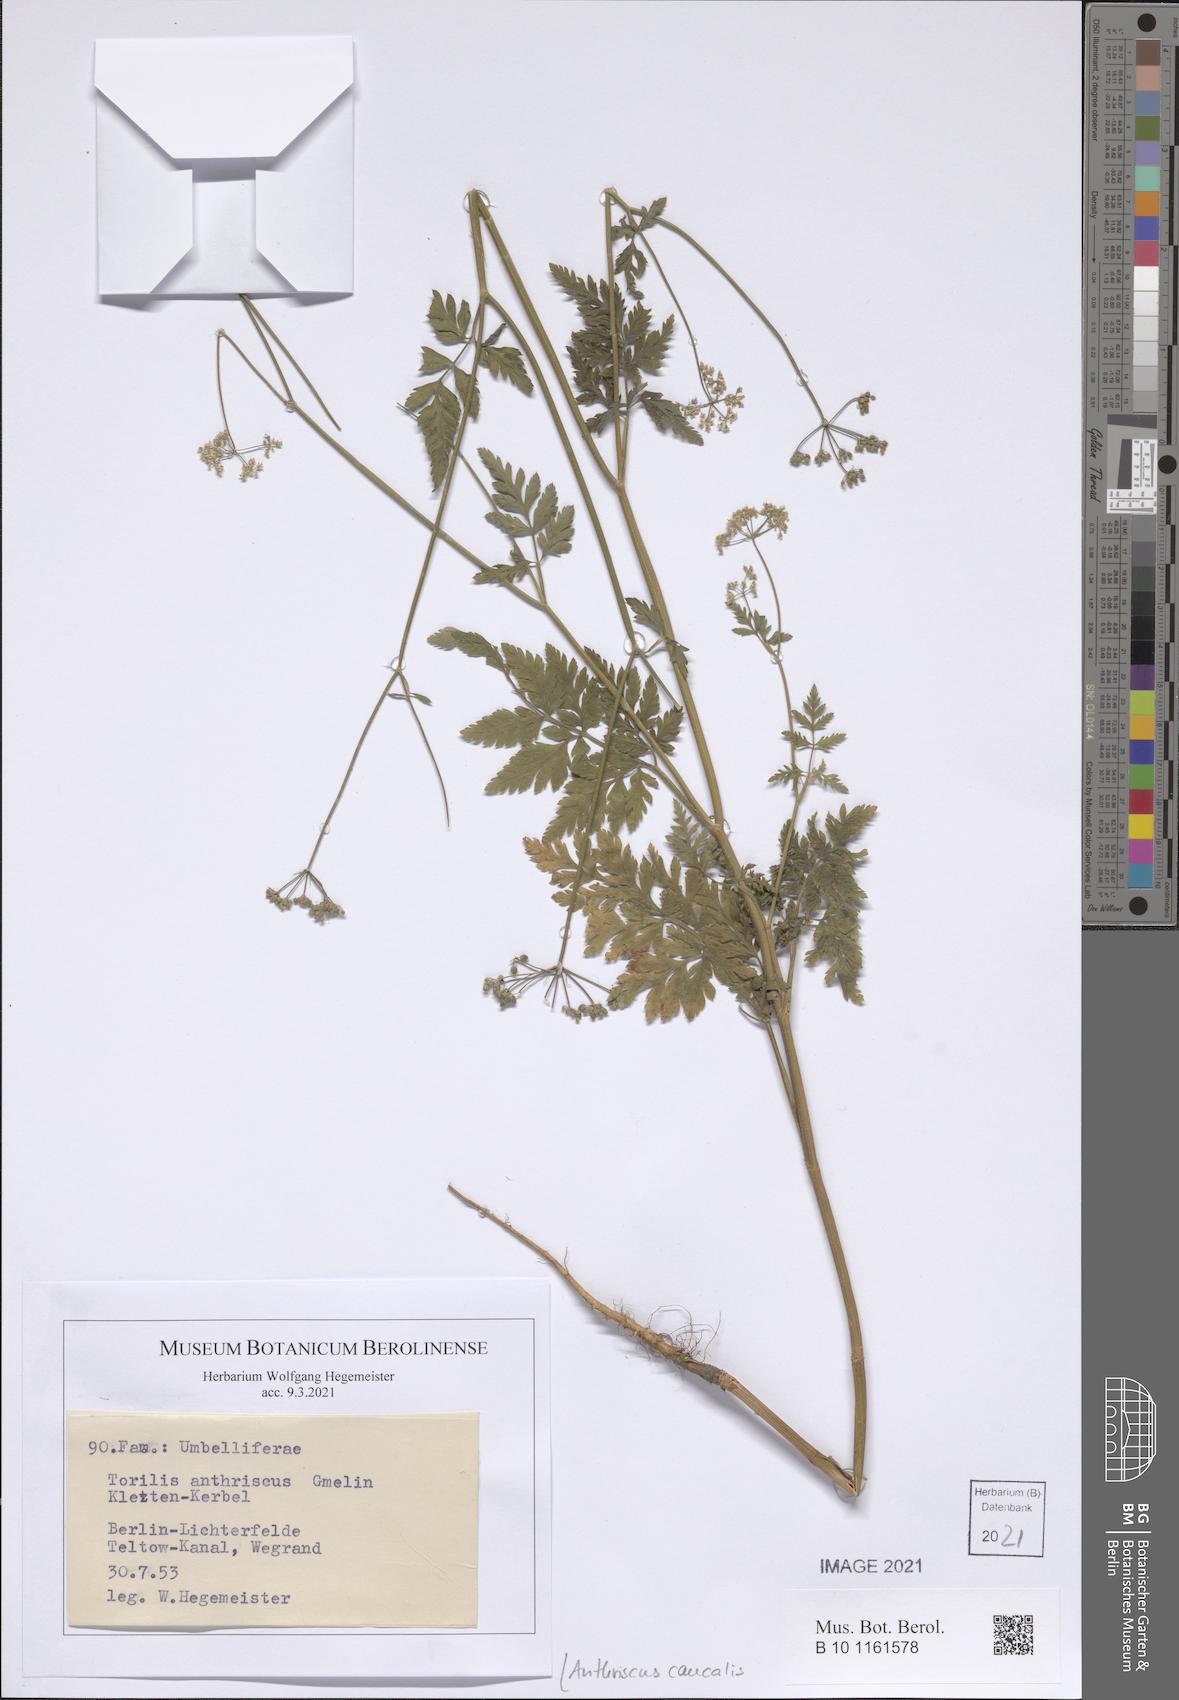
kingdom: Plantae
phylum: Tracheophyta
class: Magnoliopsida
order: Apiales
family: Apiaceae
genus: Anthriscus
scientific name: Anthriscus caucalis
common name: Bur chervil
